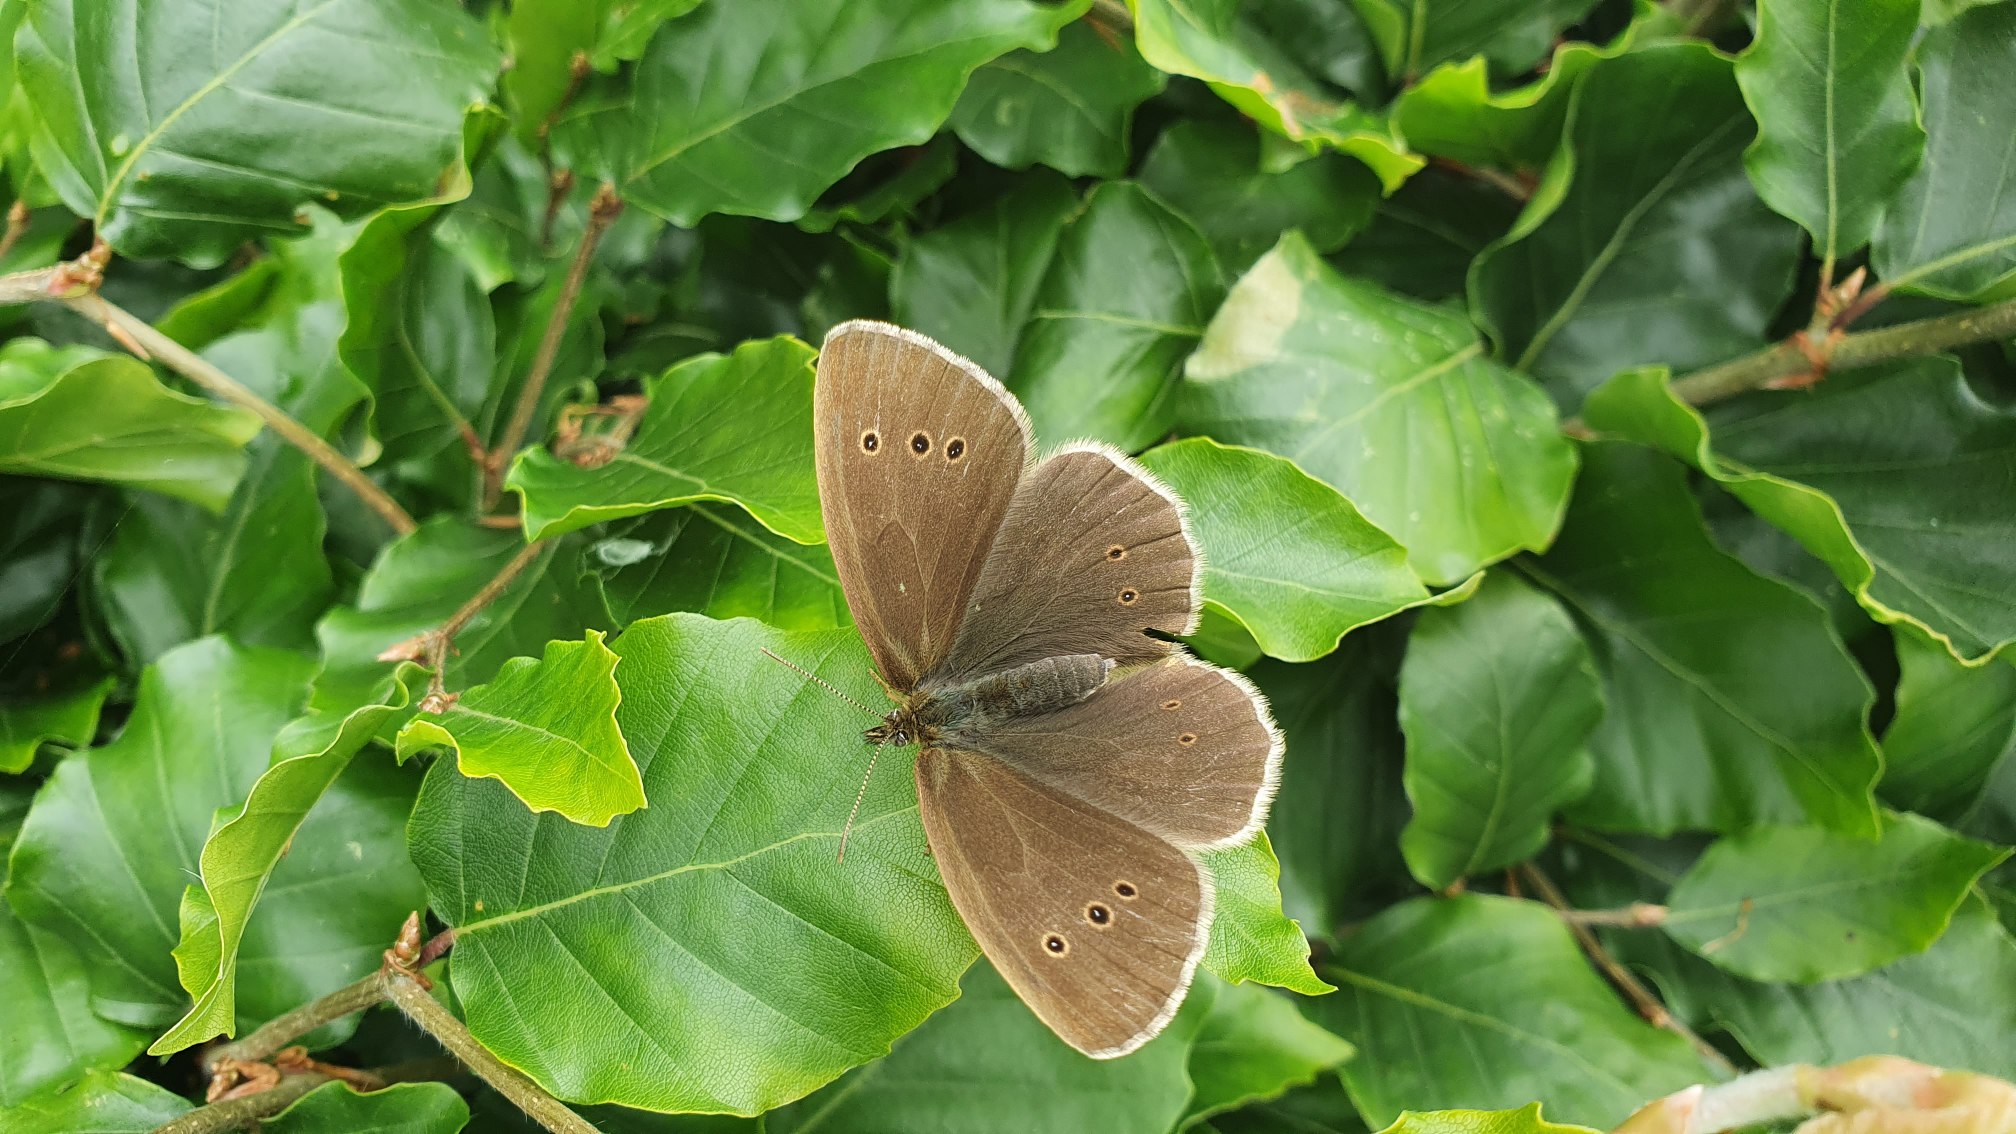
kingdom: Animalia
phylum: Arthropoda
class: Insecta
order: Lepidoptera
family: Nymphalidae
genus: Aphantopus
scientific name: Aphantopus hyperantus
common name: Engrandøje
